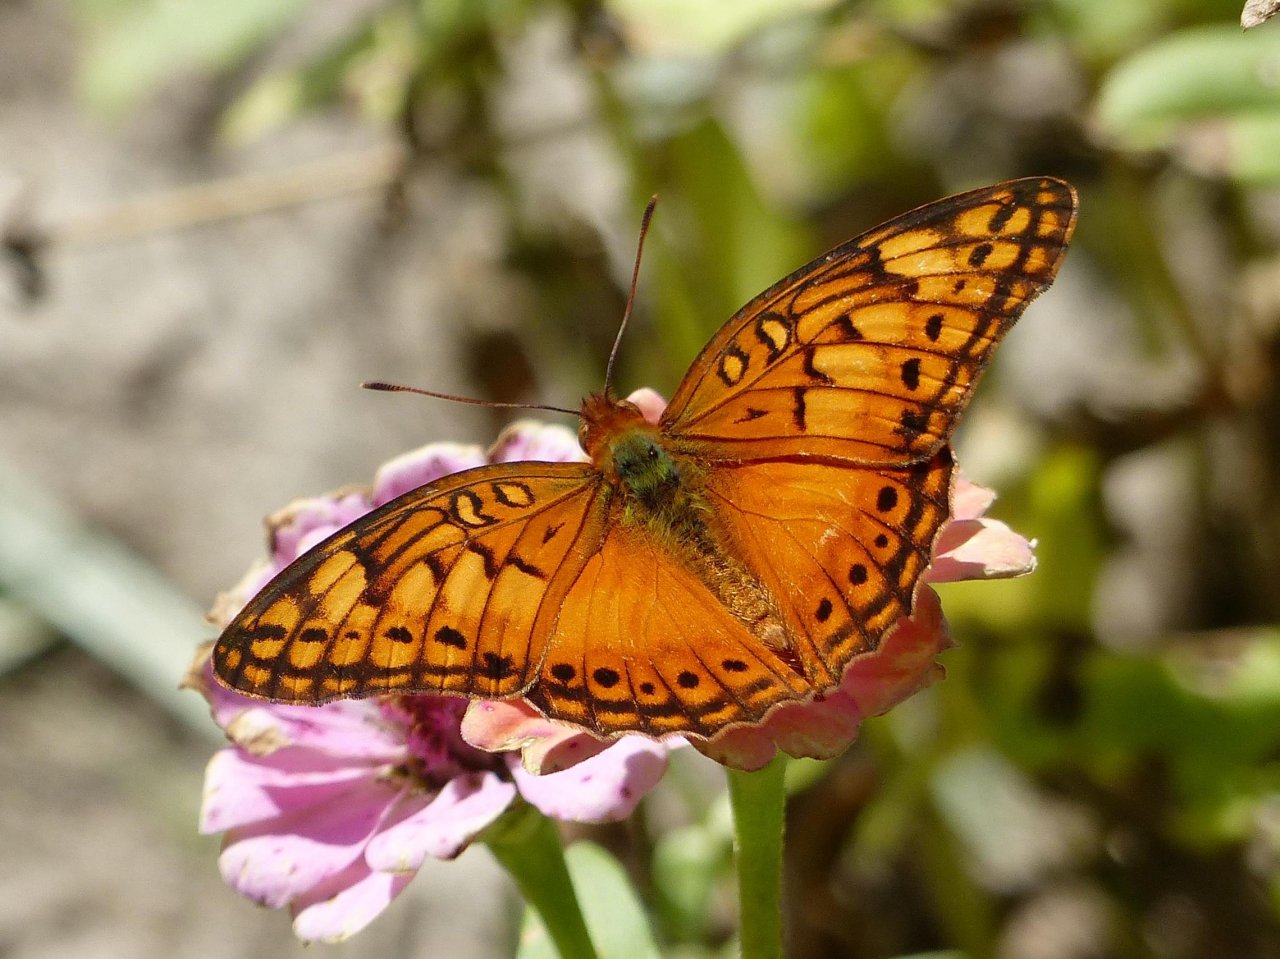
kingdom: Animalia
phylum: Arthropoda
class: Insecta
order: Lepidoptera
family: Nymphalidae
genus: Euptoieta
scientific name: Euptoieta hegesia
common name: Mexican Fritillary
